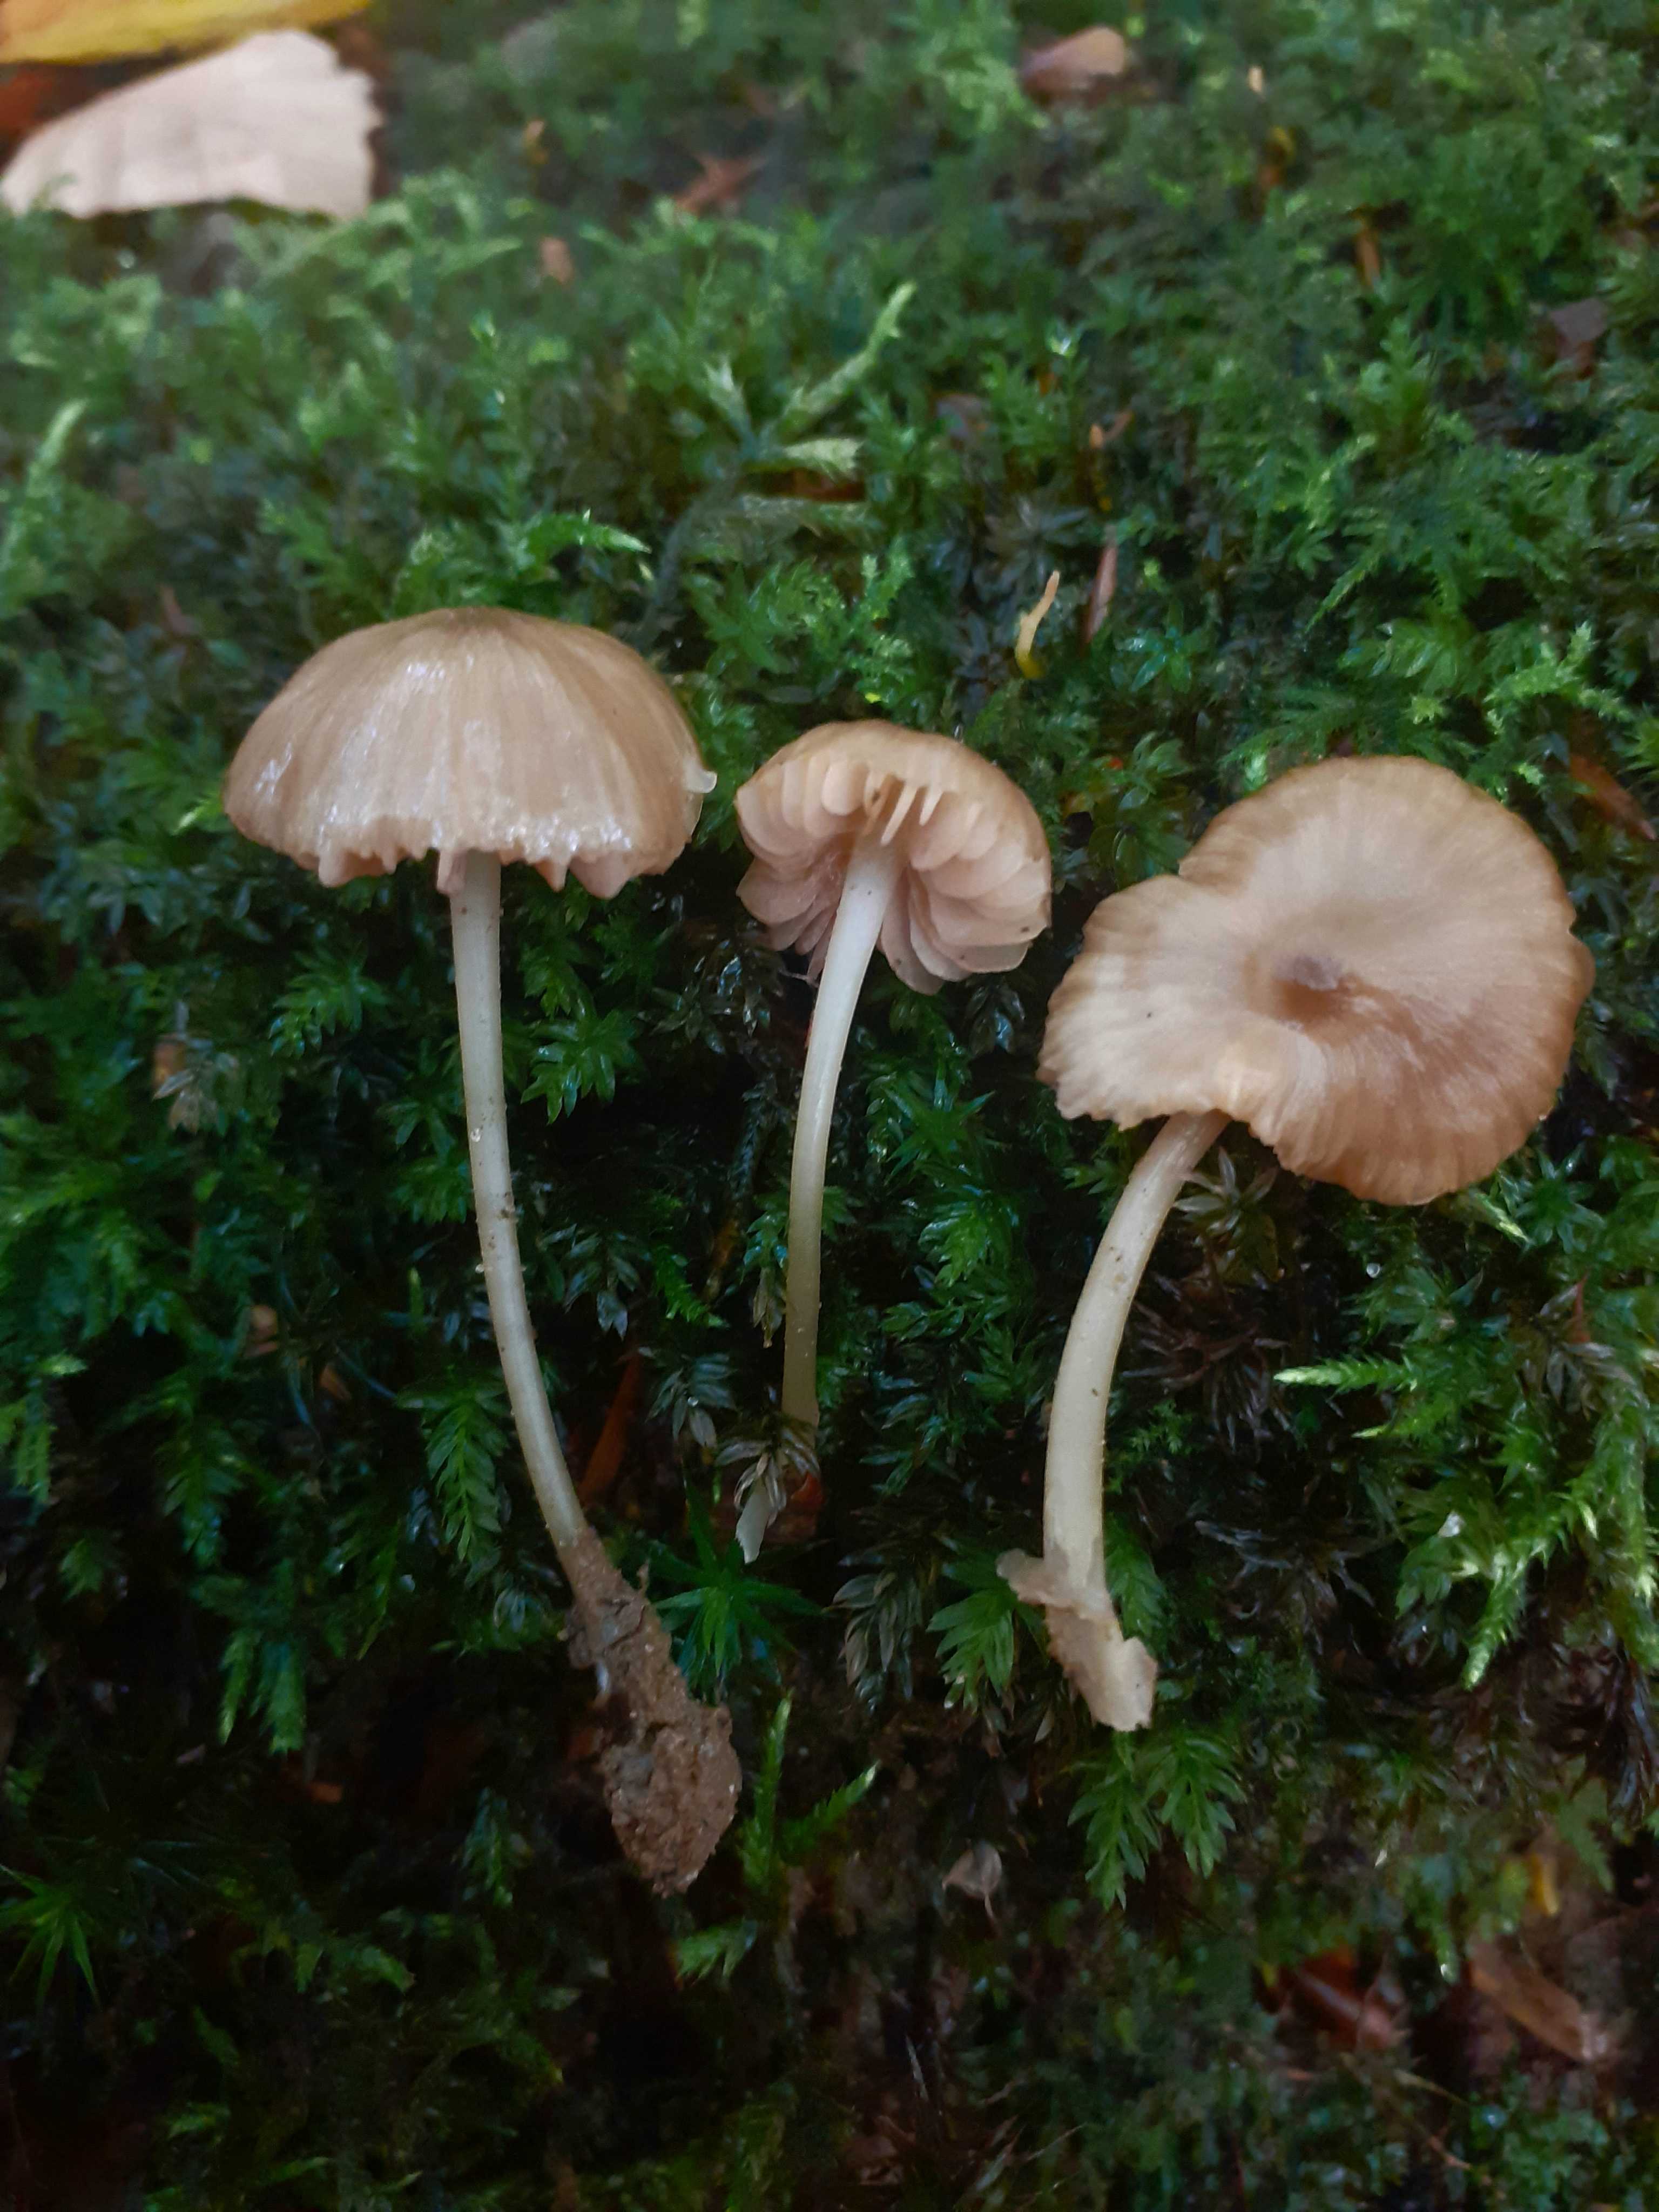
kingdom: Fungi
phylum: Basidiomycota
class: Agaricomycetes
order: Agaricales
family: Entolomataceae
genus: Entoloma
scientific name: Entoloma
